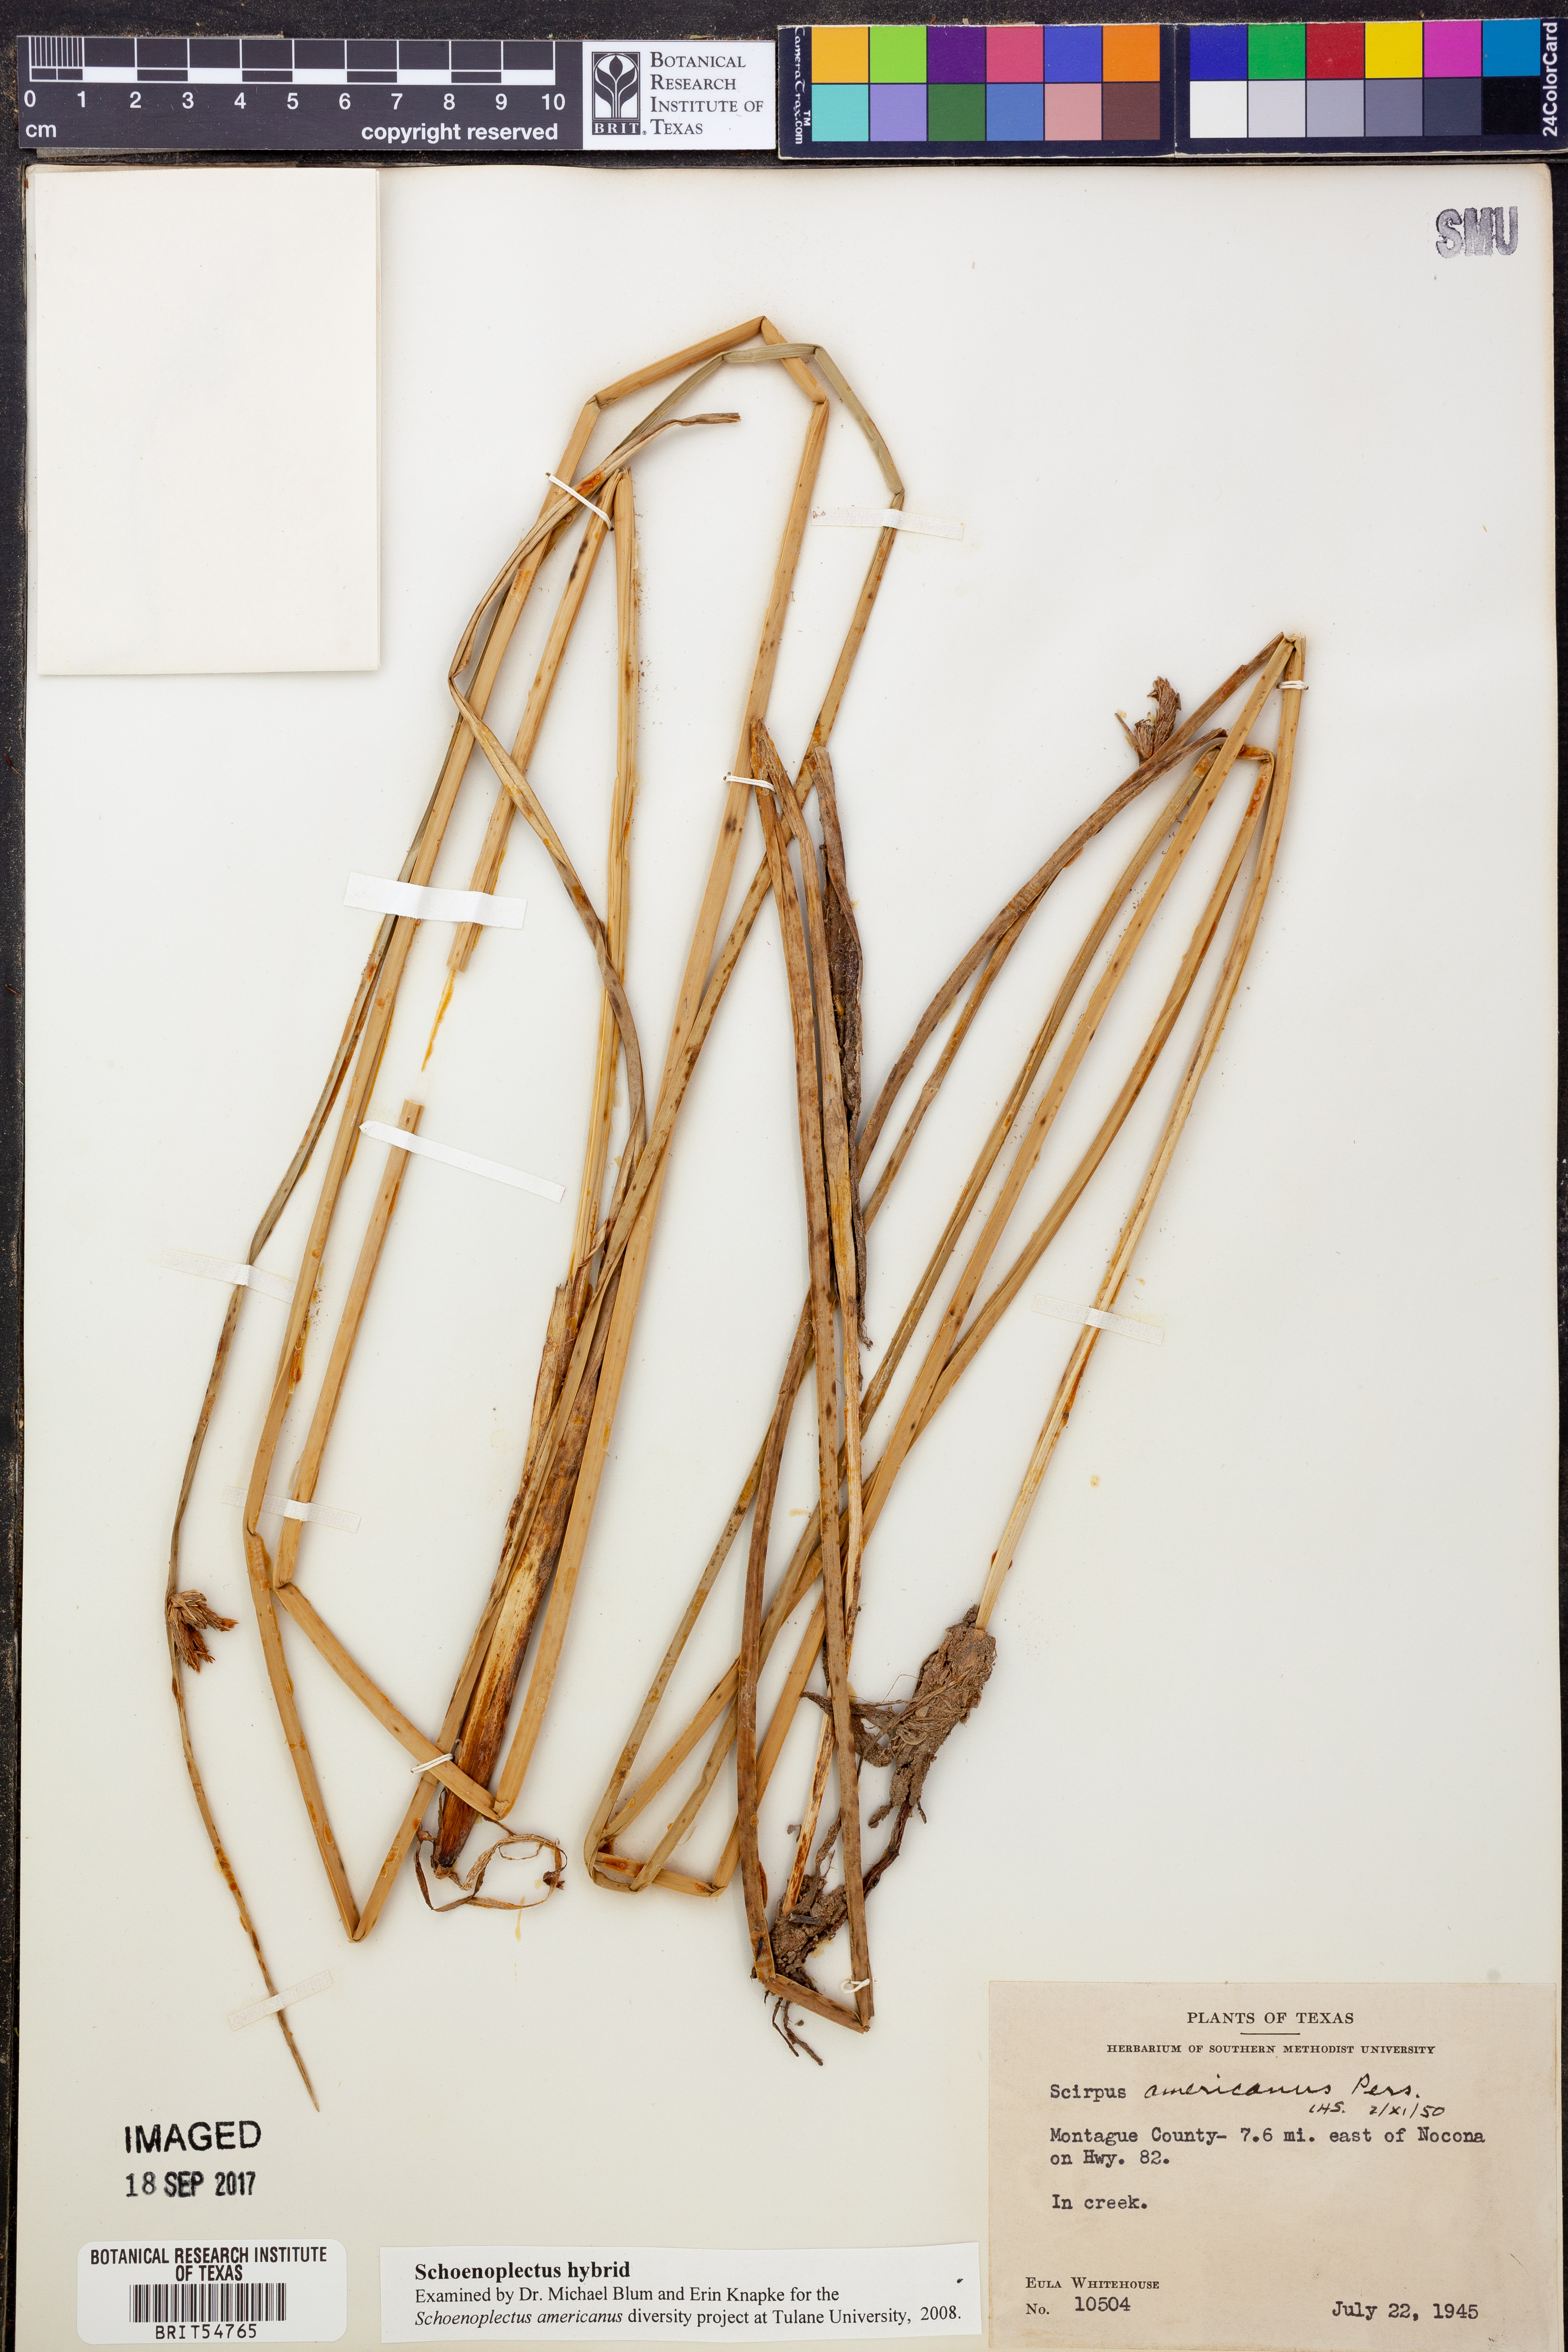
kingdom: Plantae
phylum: Tracheophyta
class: Liliopsida
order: Poales
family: Cyperaceae
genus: Schoenoplectus
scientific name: Schoenoplectus
